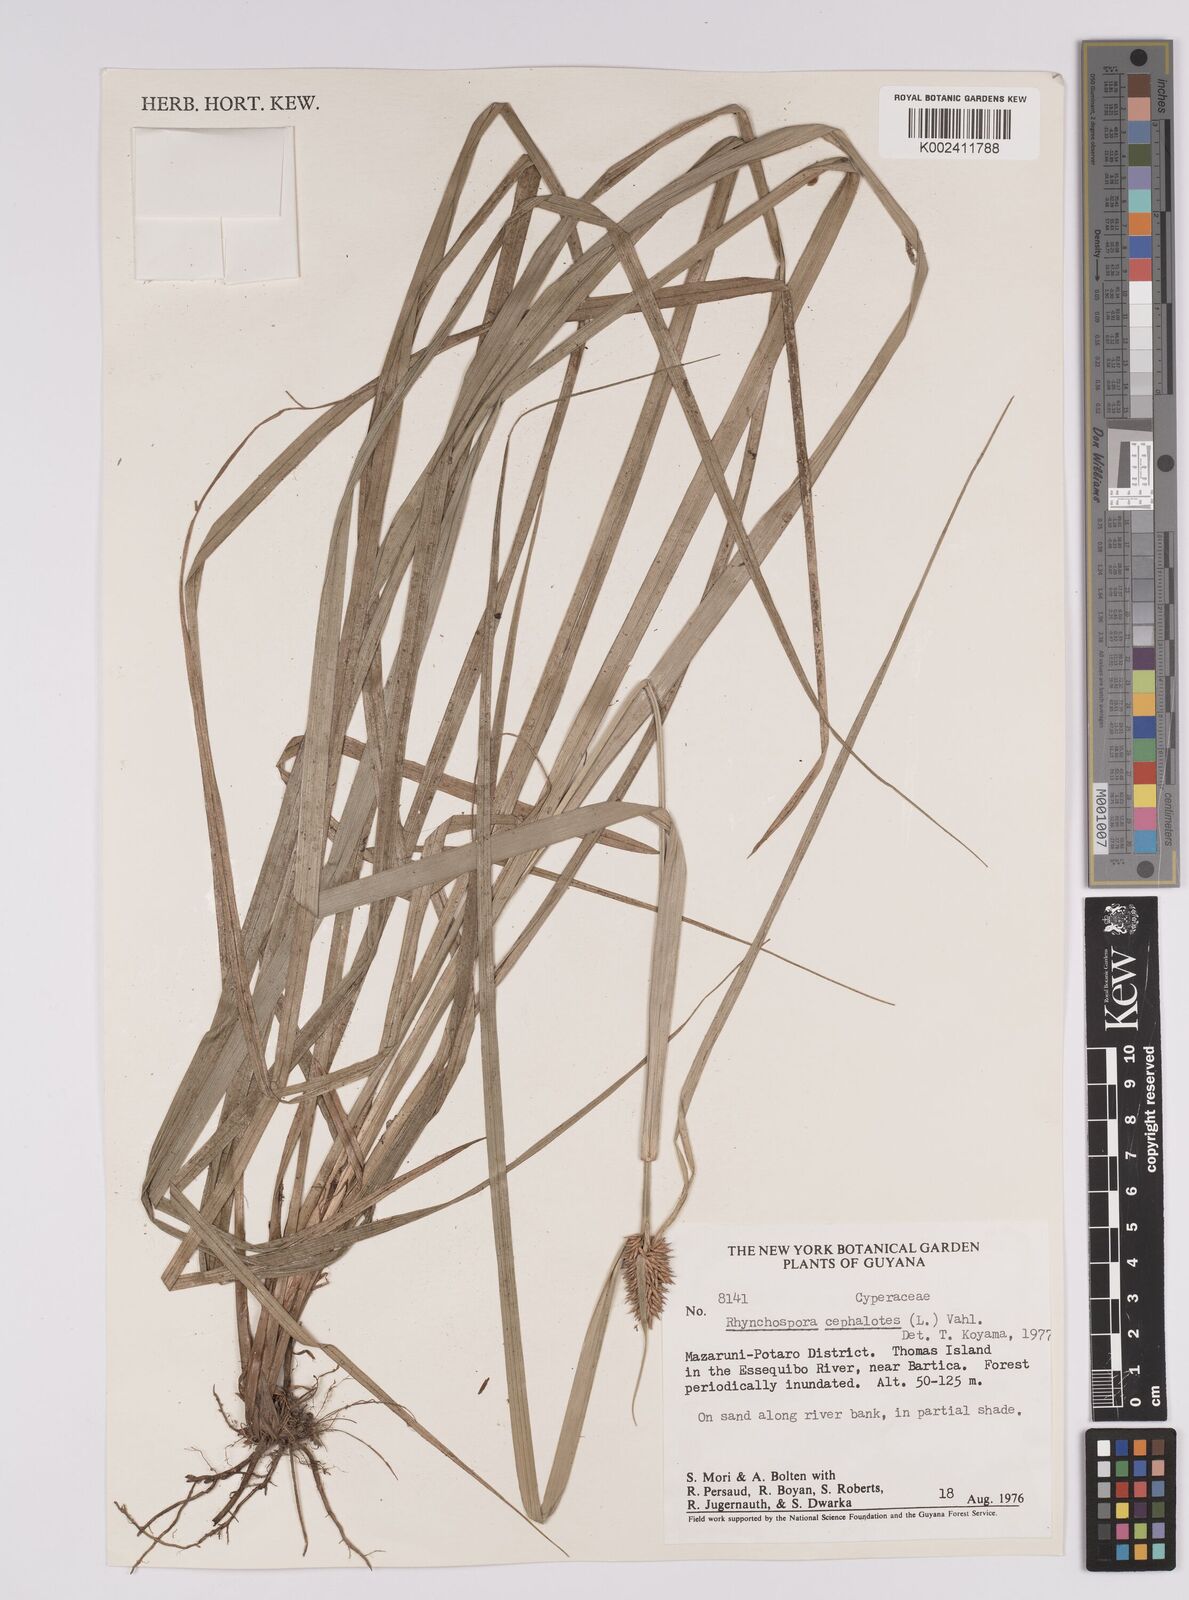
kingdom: Plantae
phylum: Tracheophyta
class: Liliopsida
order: Poales
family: Cyperaceae
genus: Rhynchospora
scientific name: Rhynchospora cephalotes
